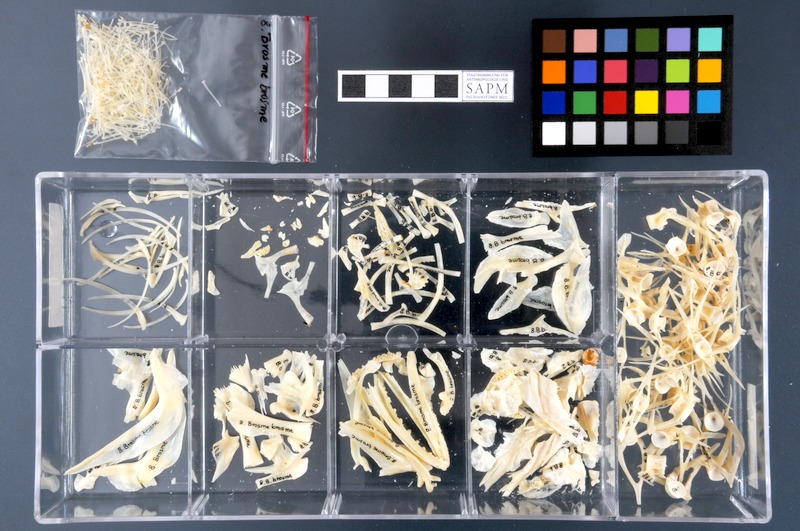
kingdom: Animalia
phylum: Chordata
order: Gadiformes
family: Lotidae
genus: Brosme
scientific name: Brosme brosme
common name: Cusk
